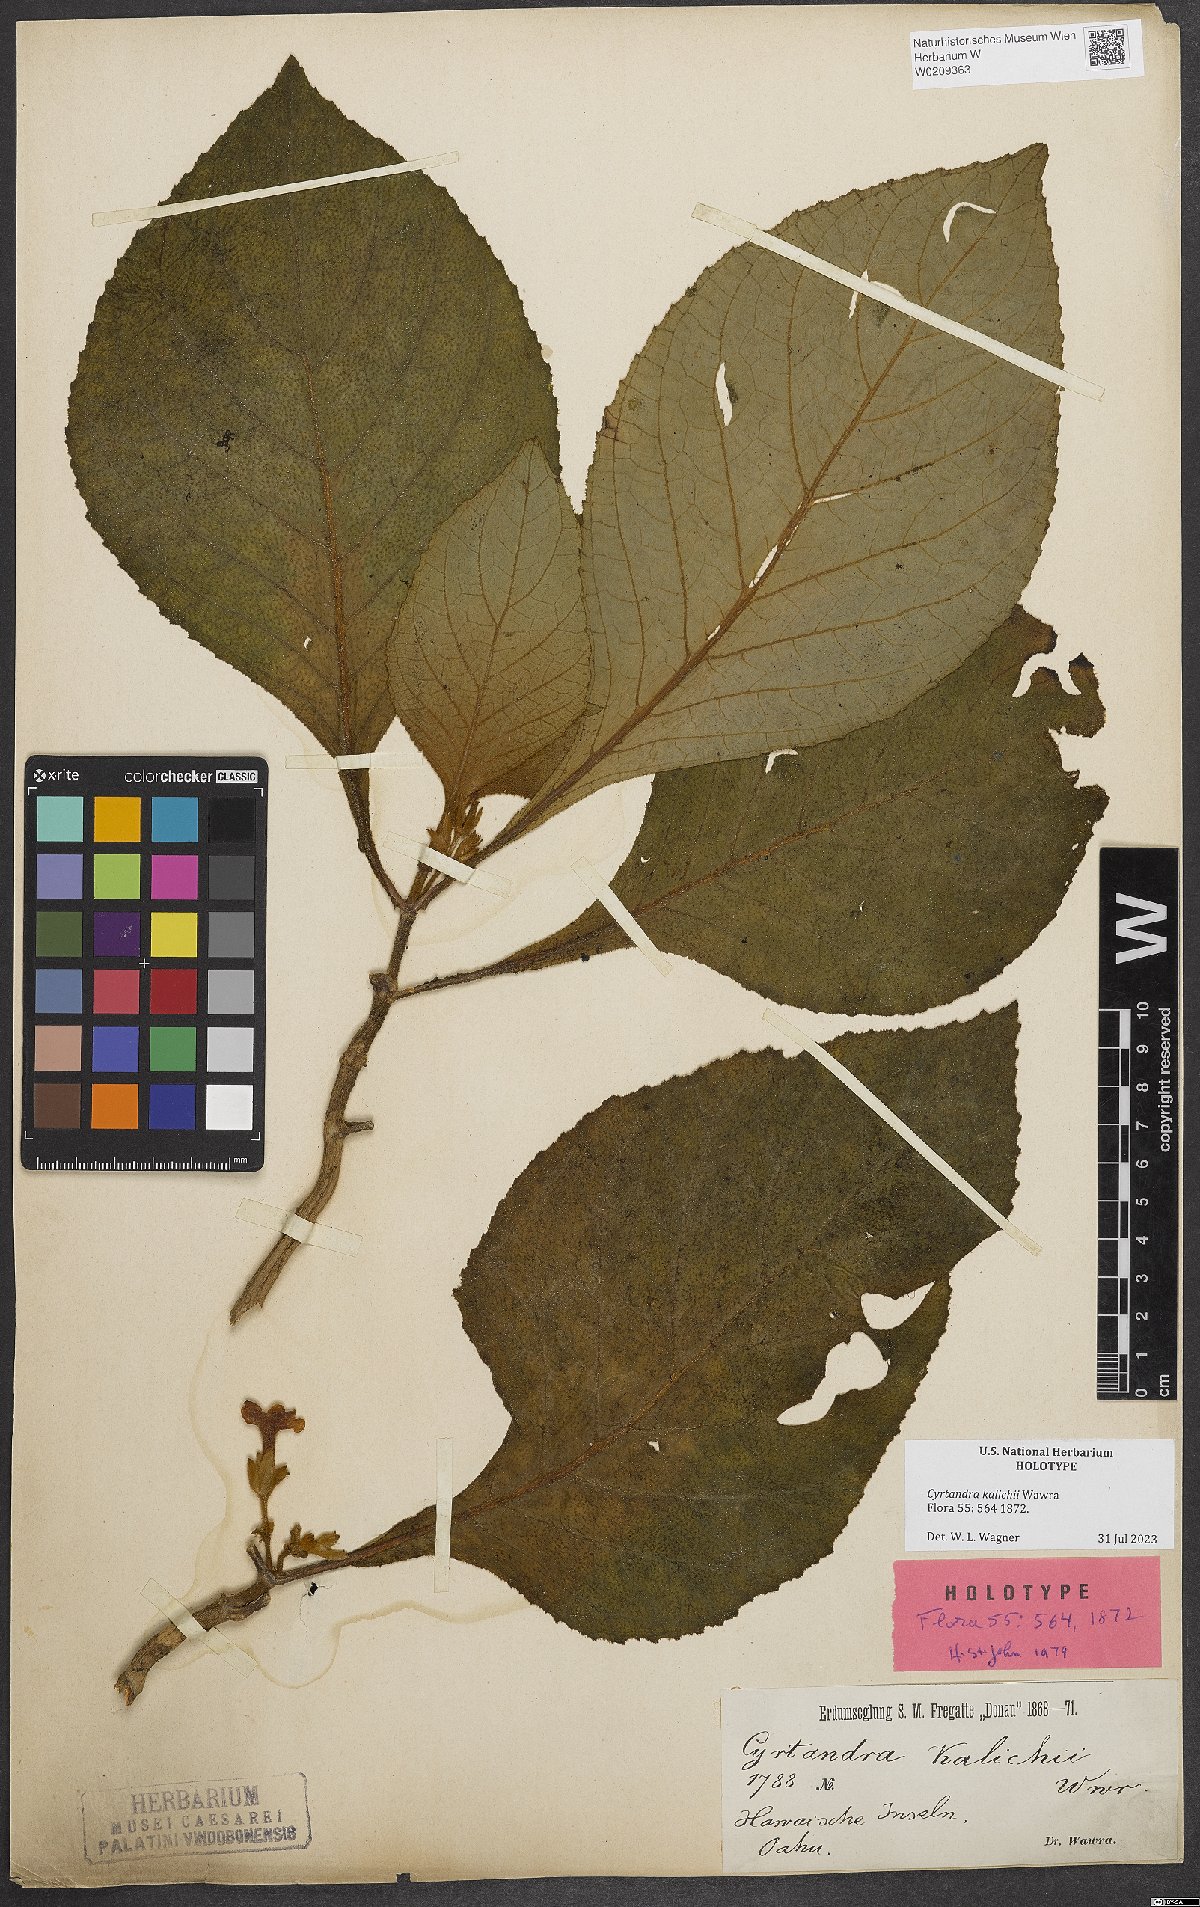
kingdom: Plantae
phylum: Tracheophyta
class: Magnoliopsida
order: Lamiales
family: Gesneriaceae
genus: Cyrtandra
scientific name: Cyrtandra kalichii
